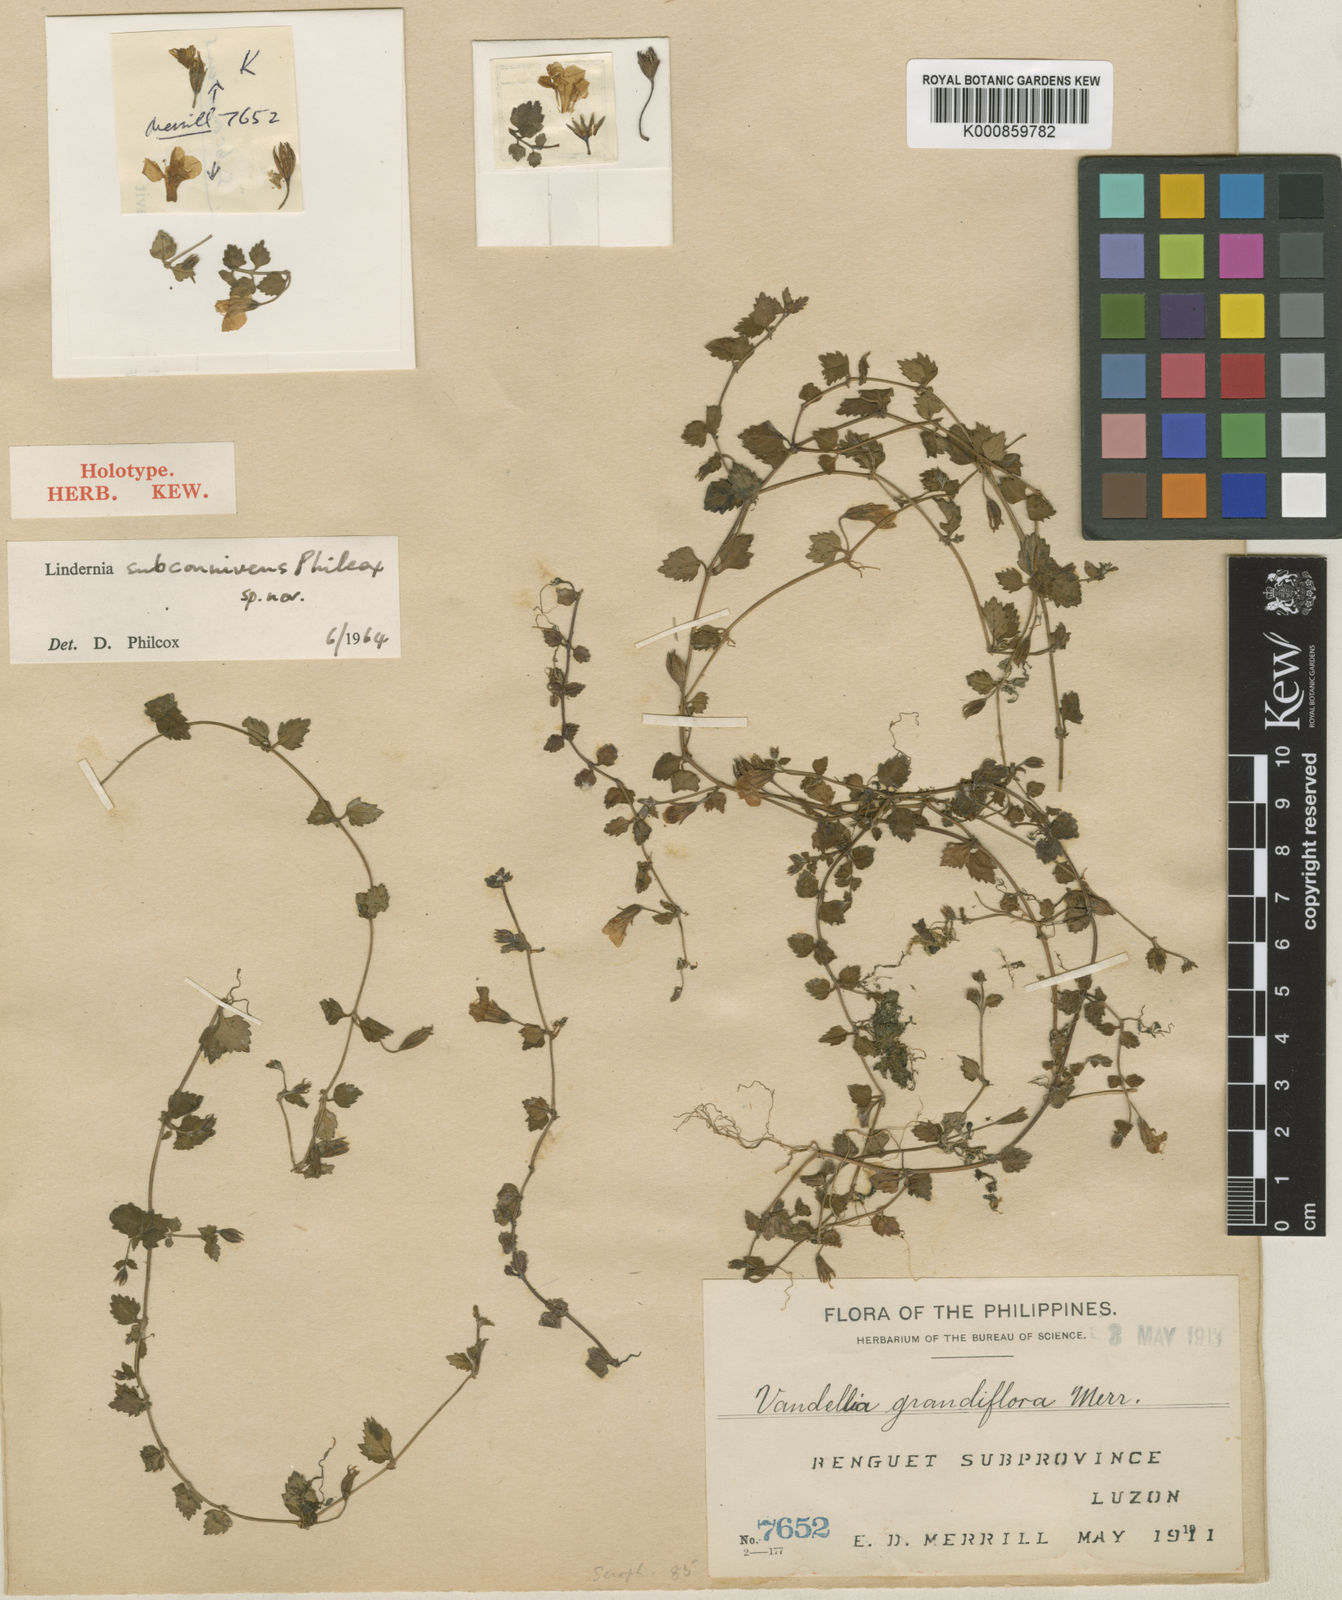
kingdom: Plantae
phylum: Tracheophyta
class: Magnoliopsida
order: Lamiales
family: Linderniaceae
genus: Torenia
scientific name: Torenia subconnivens
